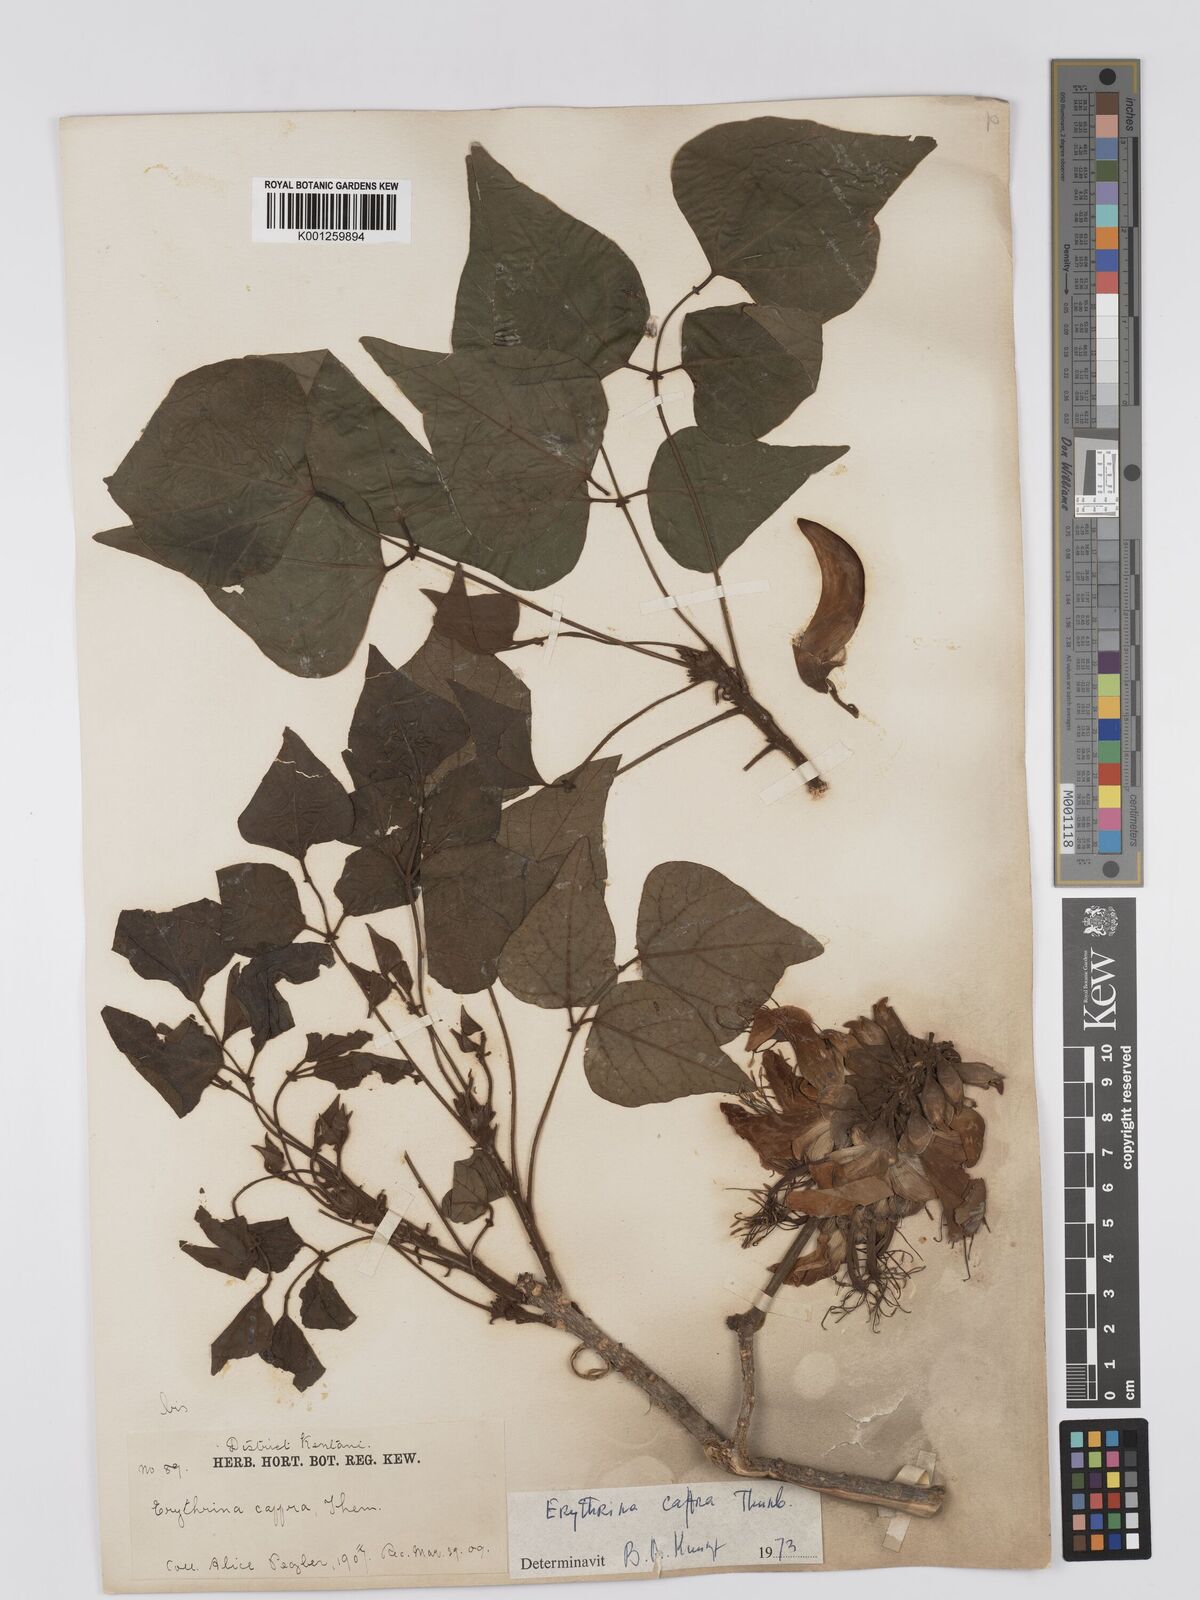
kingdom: Plantae
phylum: Tracheophyta
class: Magnoliopsida
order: Fabales
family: Fabaceae
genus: Erythrina
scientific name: Erythrina caffra
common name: Coast coral tree
